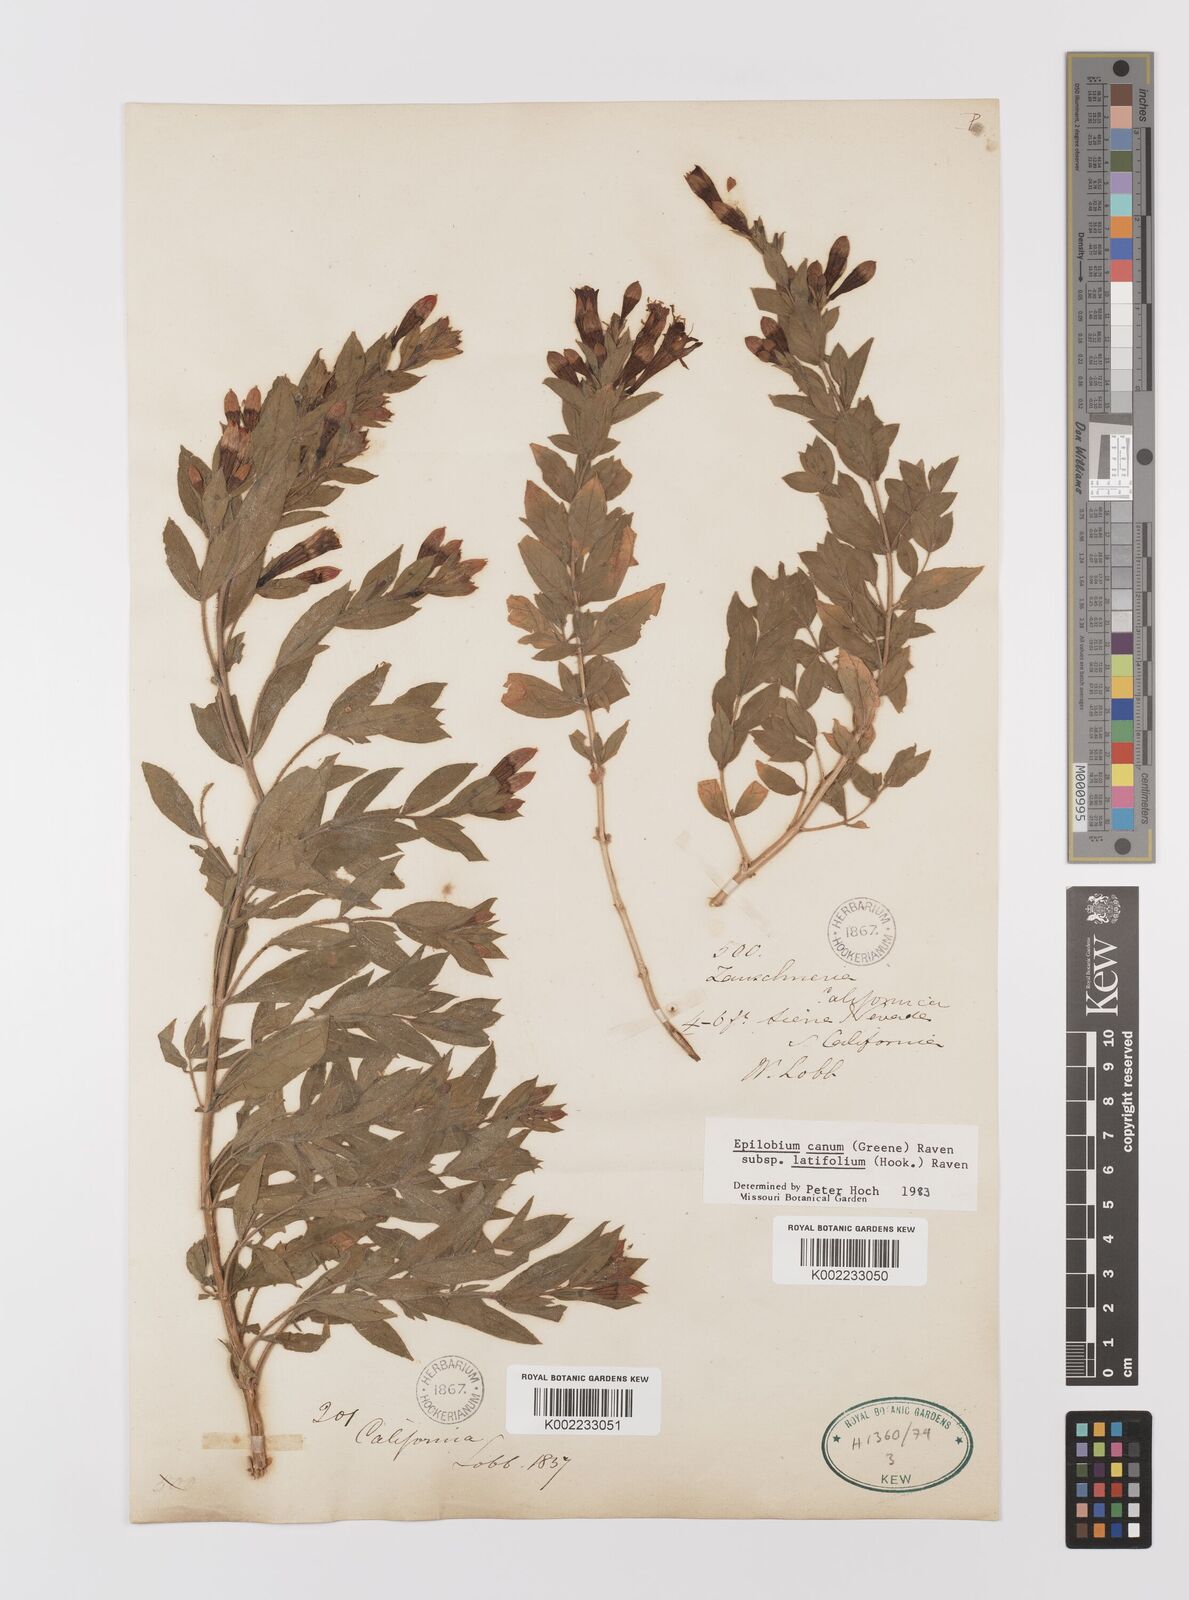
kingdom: Plantae
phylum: Tracheophyta
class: Magnoliopsida
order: Myrtales
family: Onagraceae
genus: Epilobium
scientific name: Epilobium
